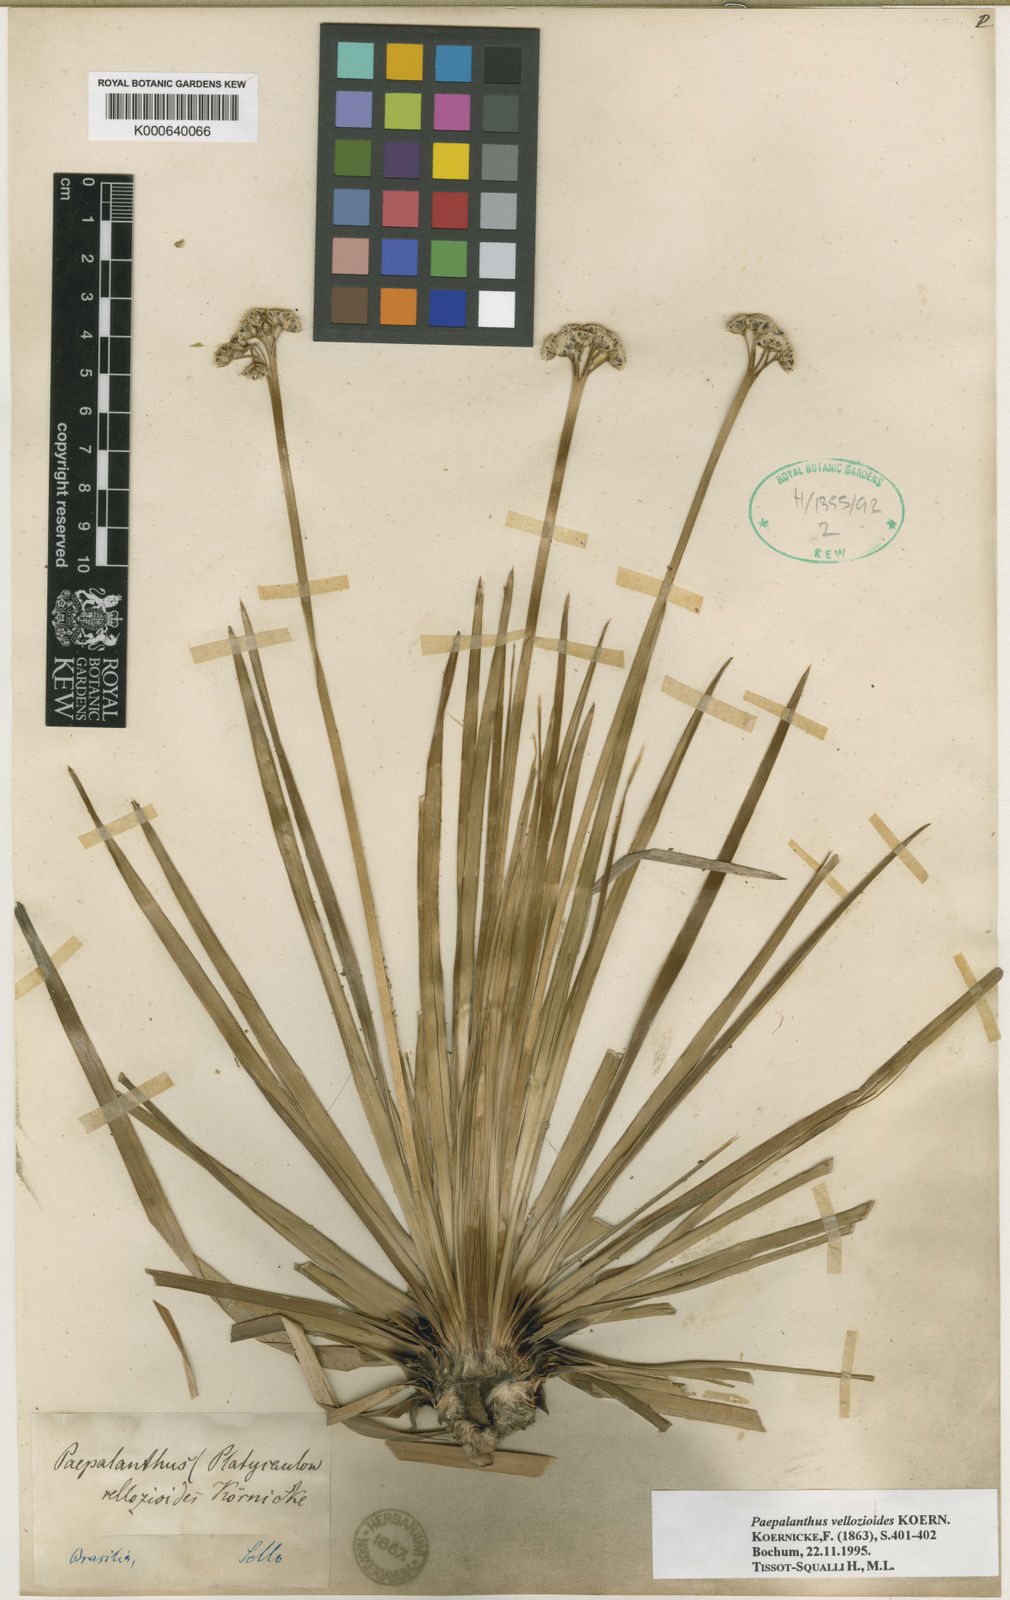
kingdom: Plantae
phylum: Tracheophyta
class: Liliopsida
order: Poales
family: Eriocaulaceae
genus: Paepalanthus
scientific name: Paepalanthus
